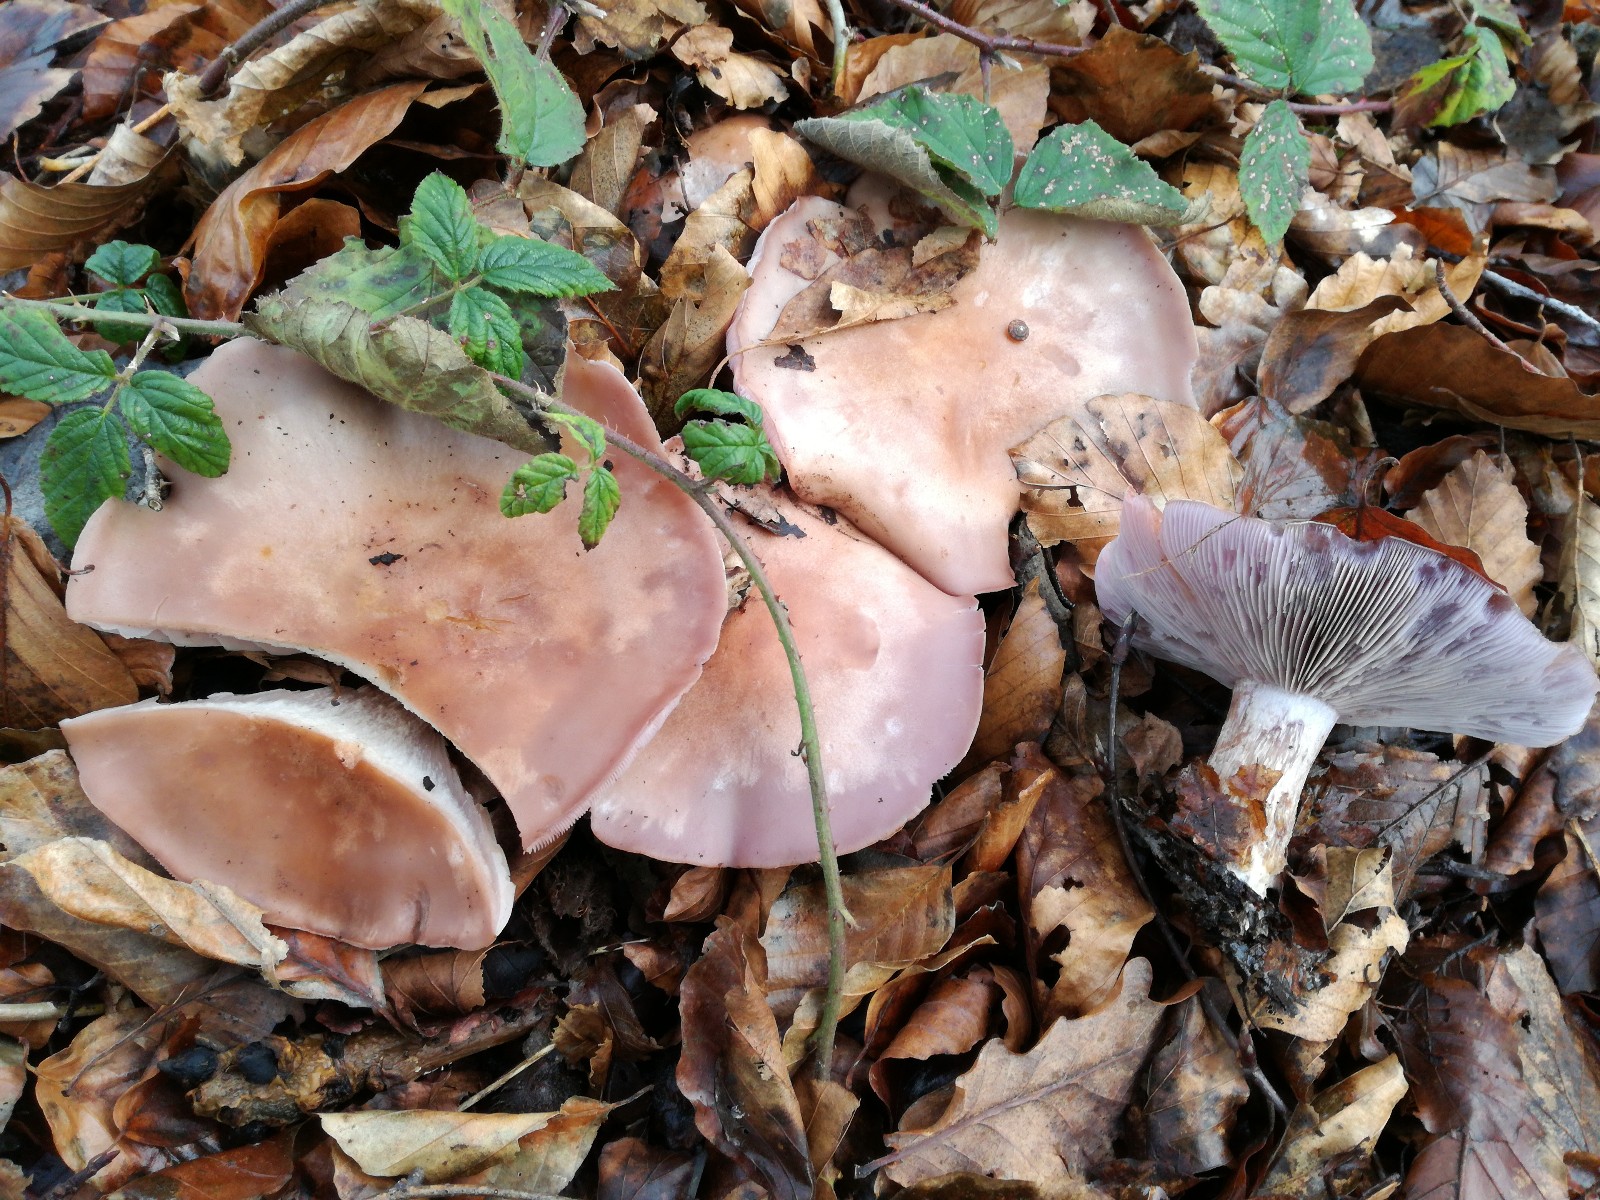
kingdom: Fungi
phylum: Basidiomycota
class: Agaricomycetes
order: Agaricales
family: Tricholomataceae
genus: Lepista
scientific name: Lepista nuda
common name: violet hekseringshat
